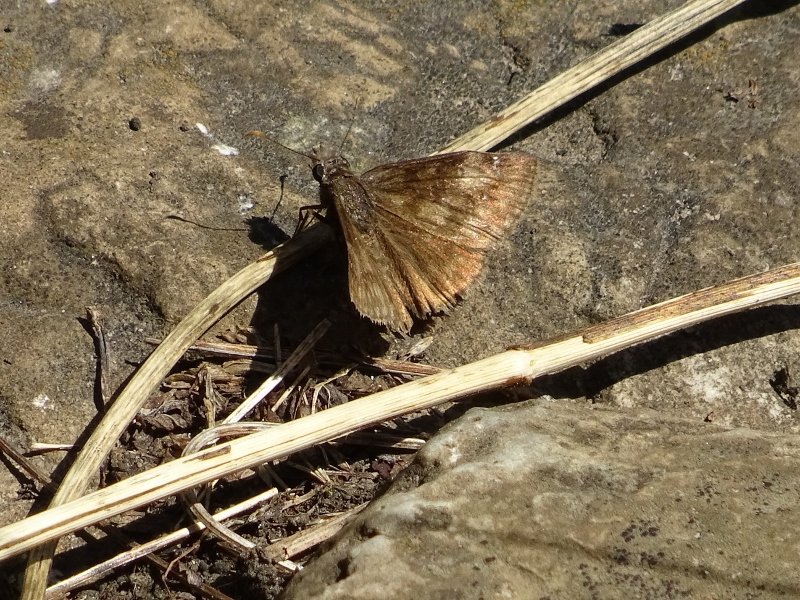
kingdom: Animalia
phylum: Arthropoda
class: Insecta
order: Lepidoptera
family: Hesperiidae
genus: Gesta
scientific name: Gesta
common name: Wild Indigo Duskywing
